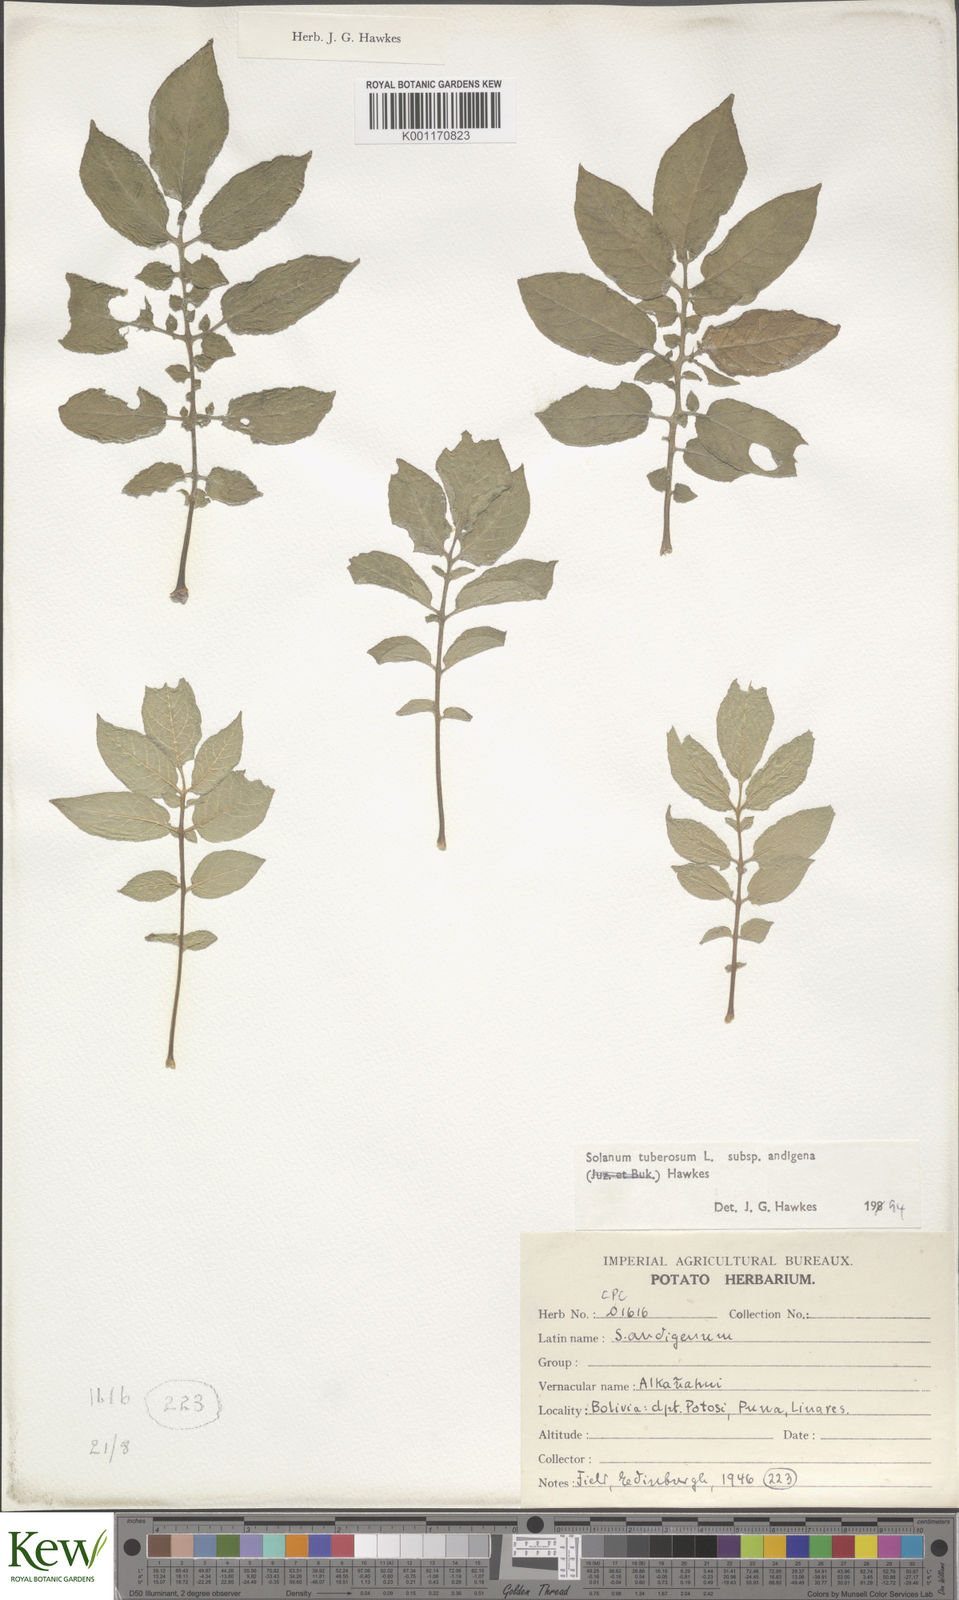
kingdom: Plantae
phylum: Tracheophyta
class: Magnoliopsida
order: Solanales
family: Solanaceae
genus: Solanum
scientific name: Solanum tuberosum
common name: Potato
